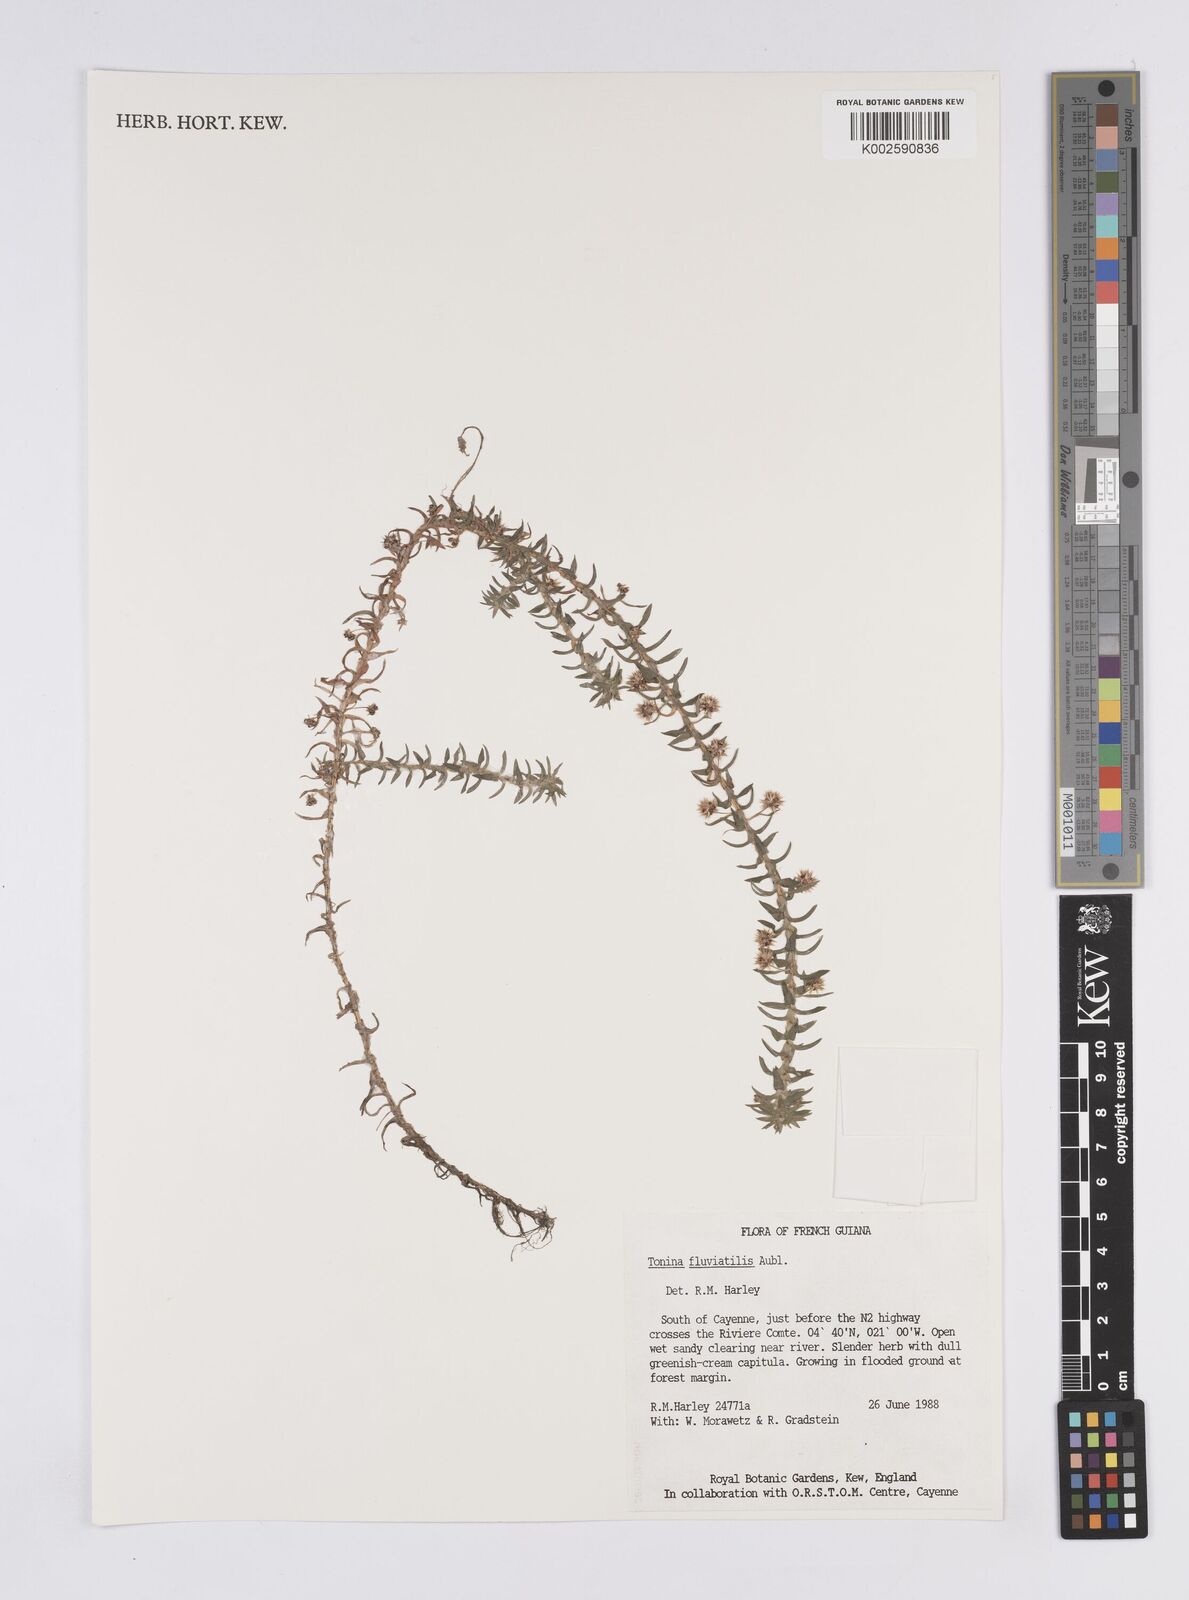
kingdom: Plantae
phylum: Tracheophyta
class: Liliopsida
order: Poales
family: Eriocaulaceae
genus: Paepalanthus
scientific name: Paepalanthus fluviatilis
